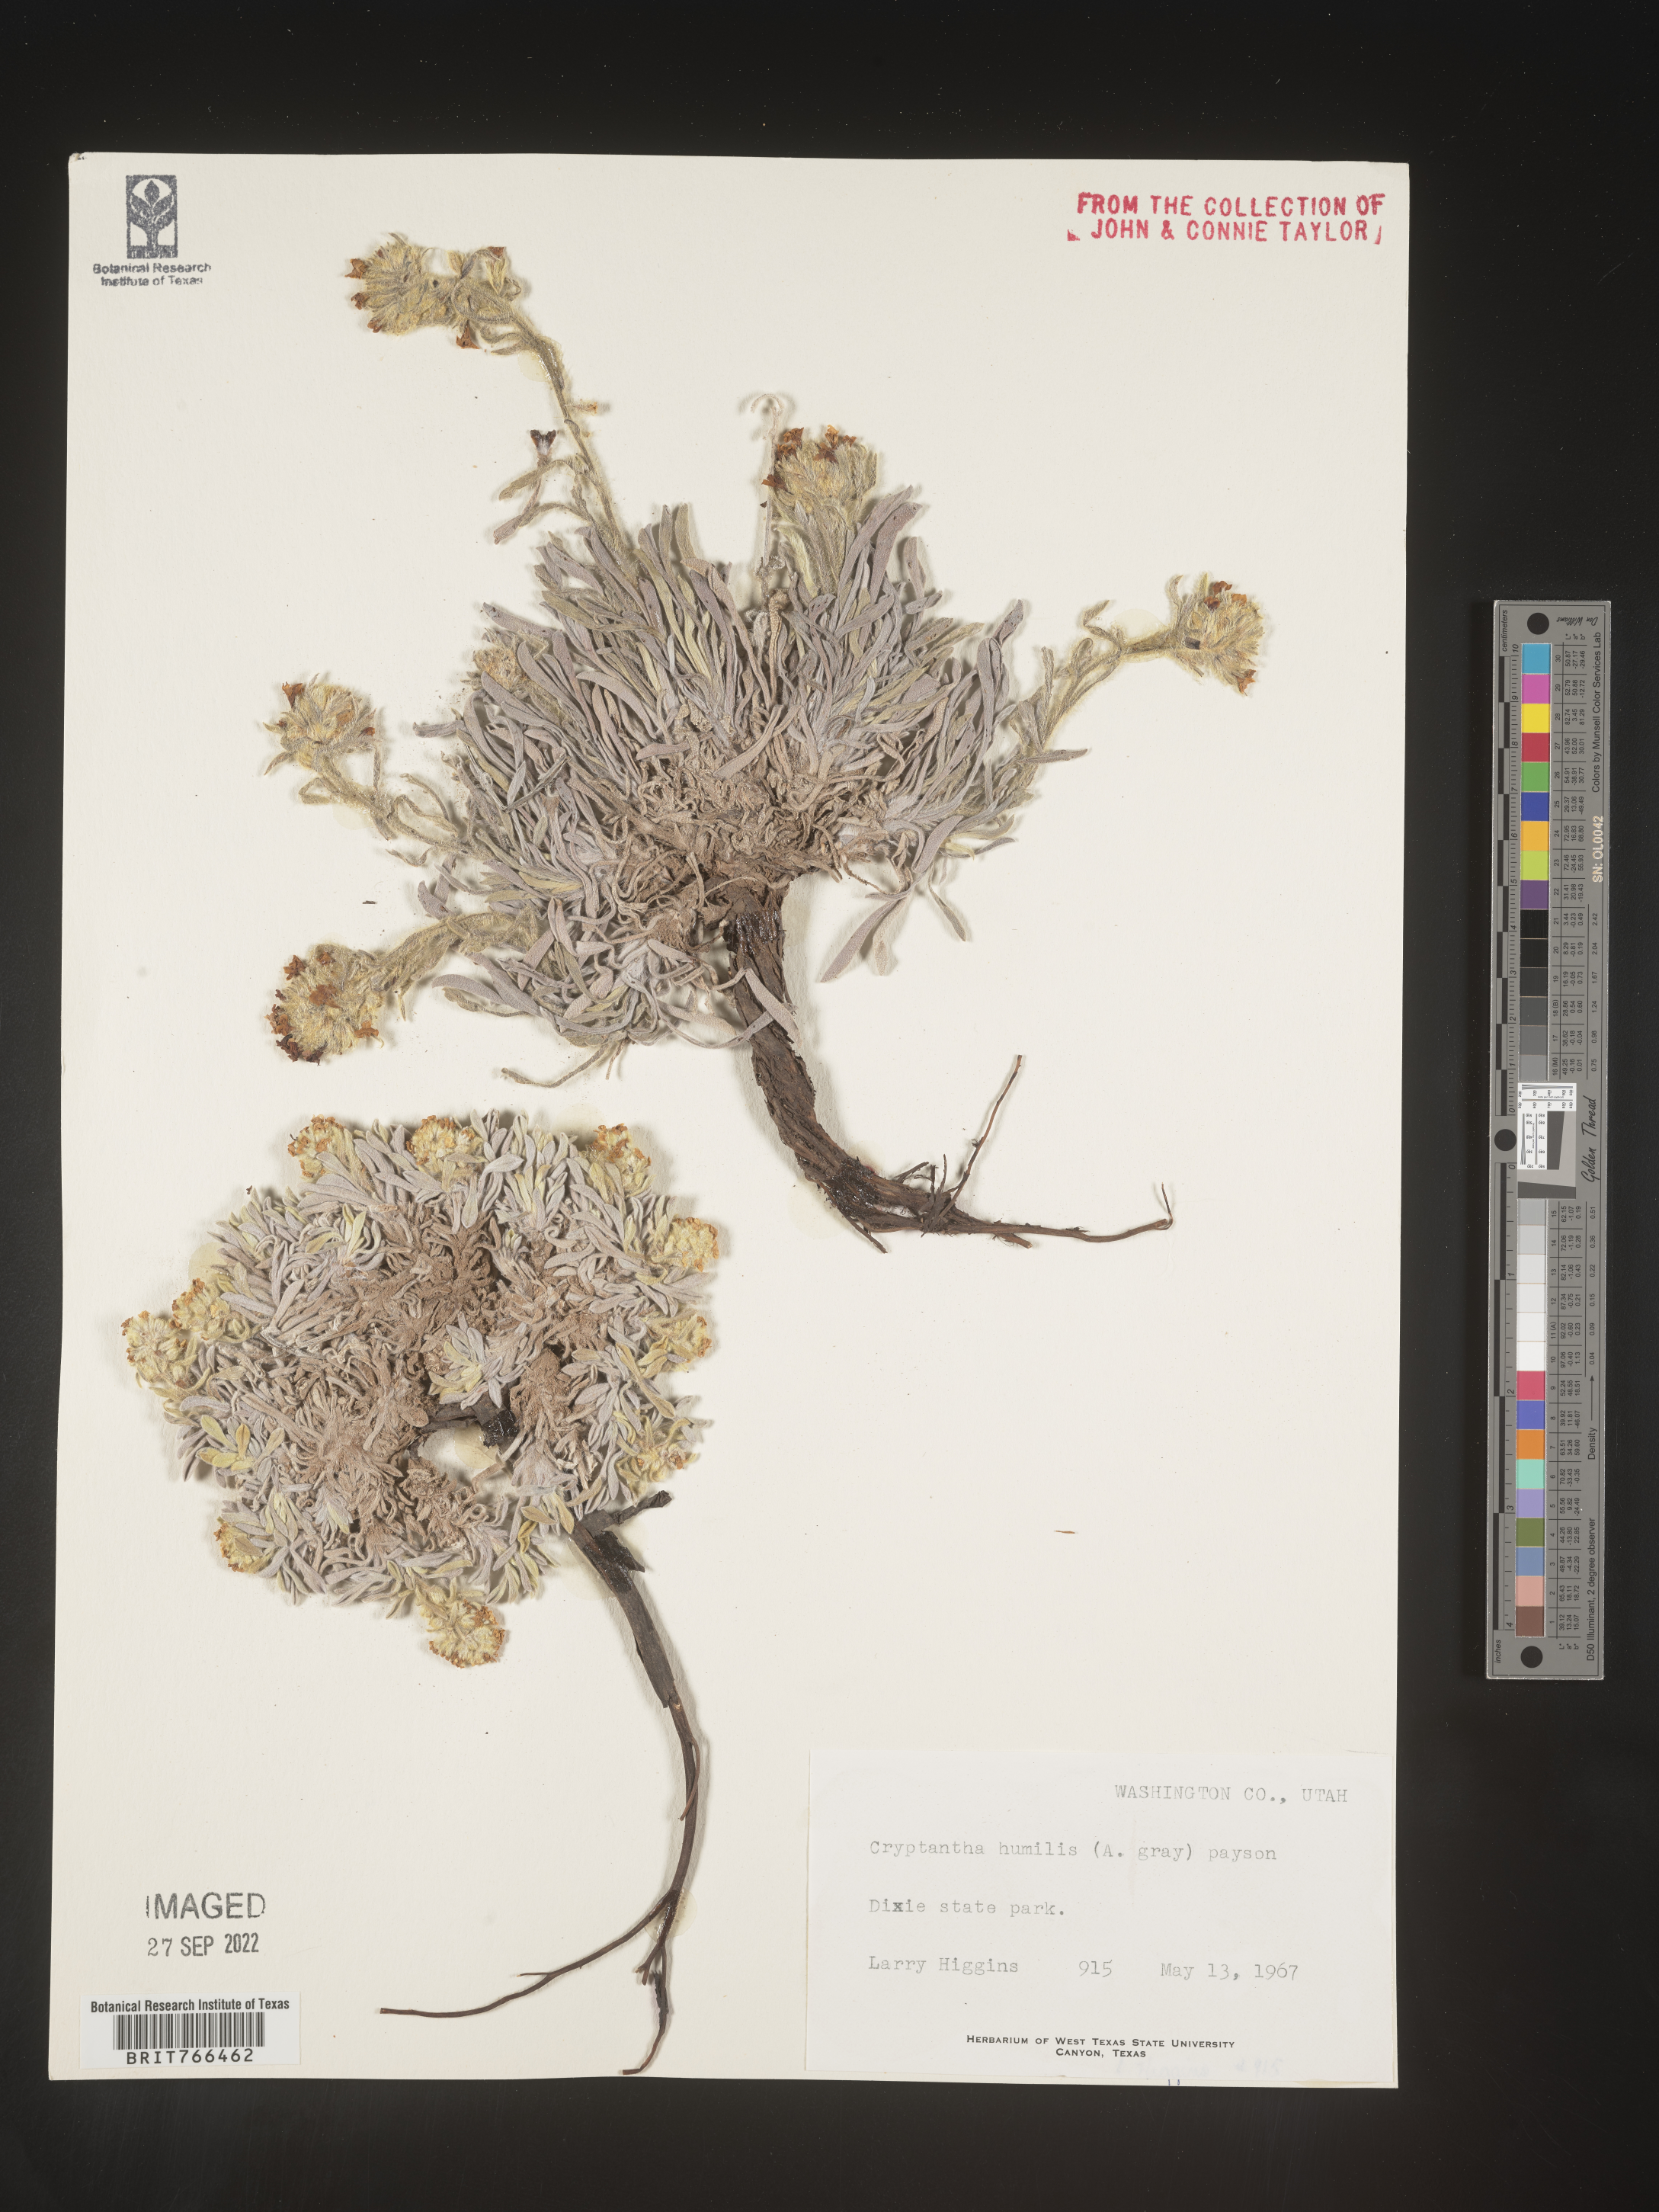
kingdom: Plantae
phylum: Tracheophyta
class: Magnoliopsida
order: Boraginales
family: Boraginaceae
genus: Cryptantha
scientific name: Cryptantha
